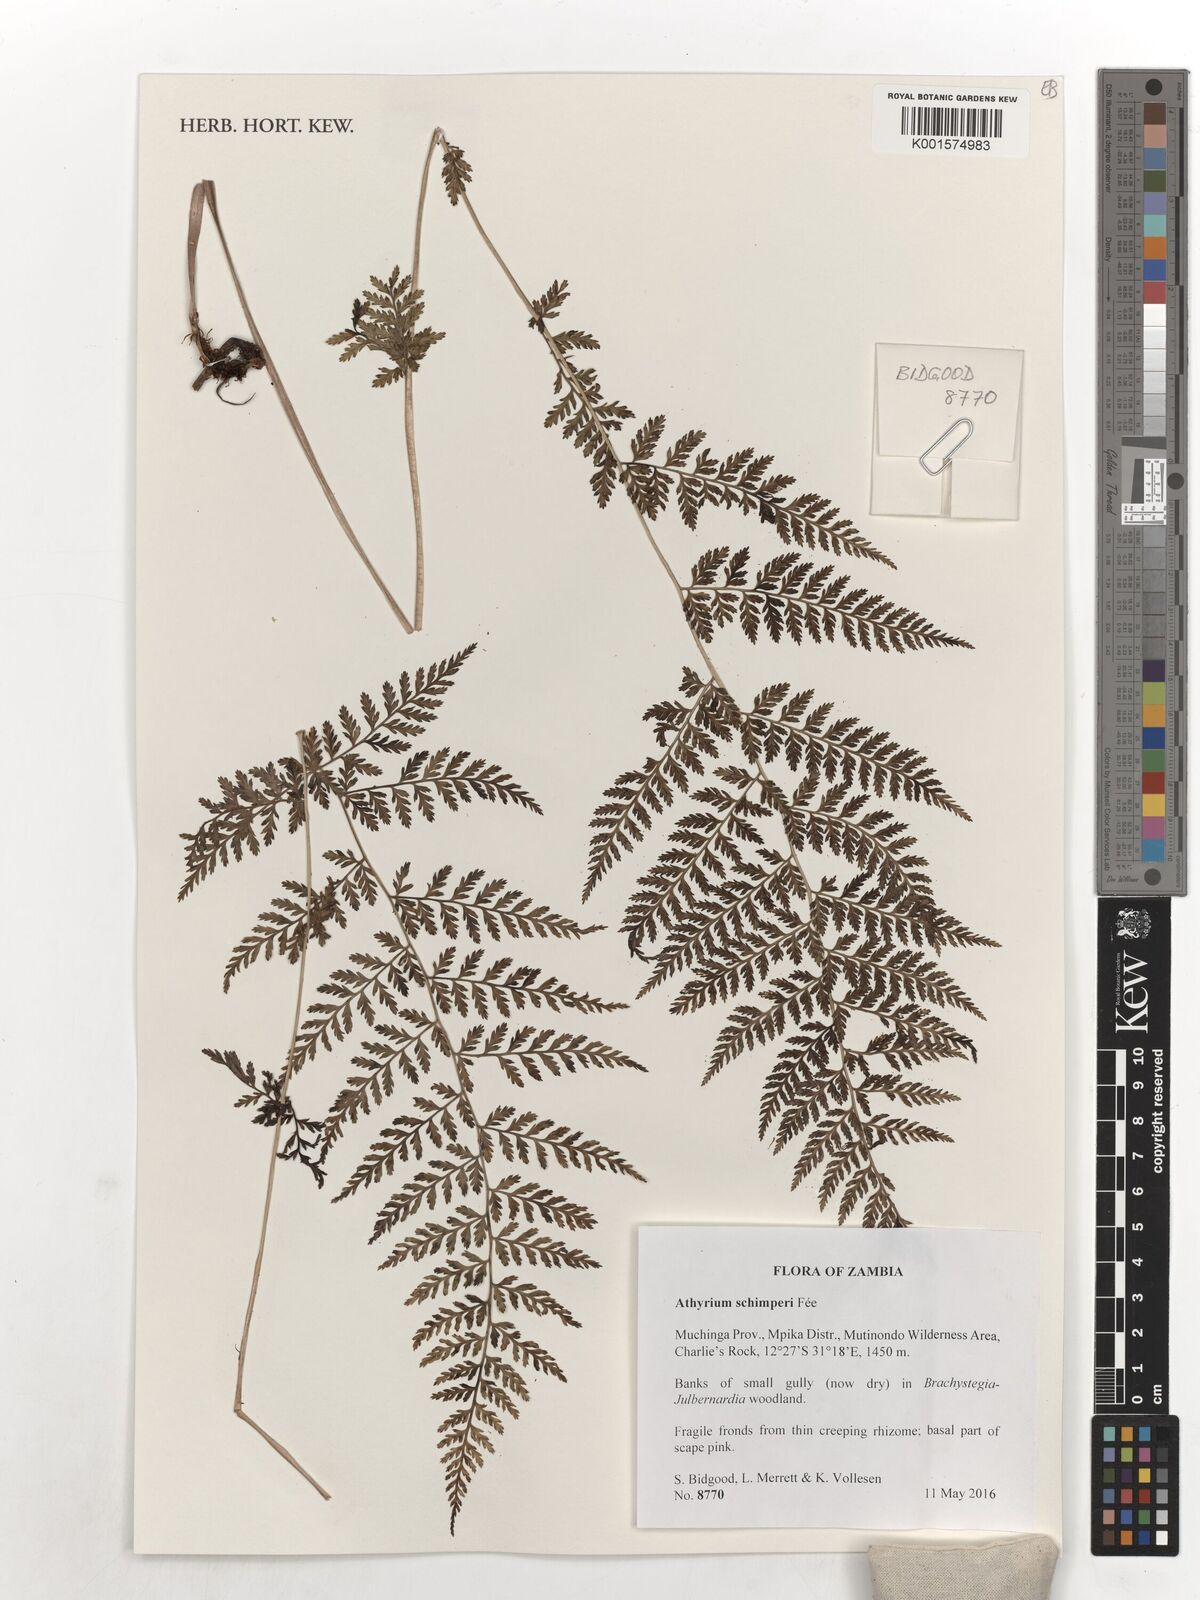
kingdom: Plantae
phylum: Tracheophyta
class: Polypodiopsida
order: Polypodiales
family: Athyriaceae
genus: Athyrium
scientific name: Athyrium schimperi
